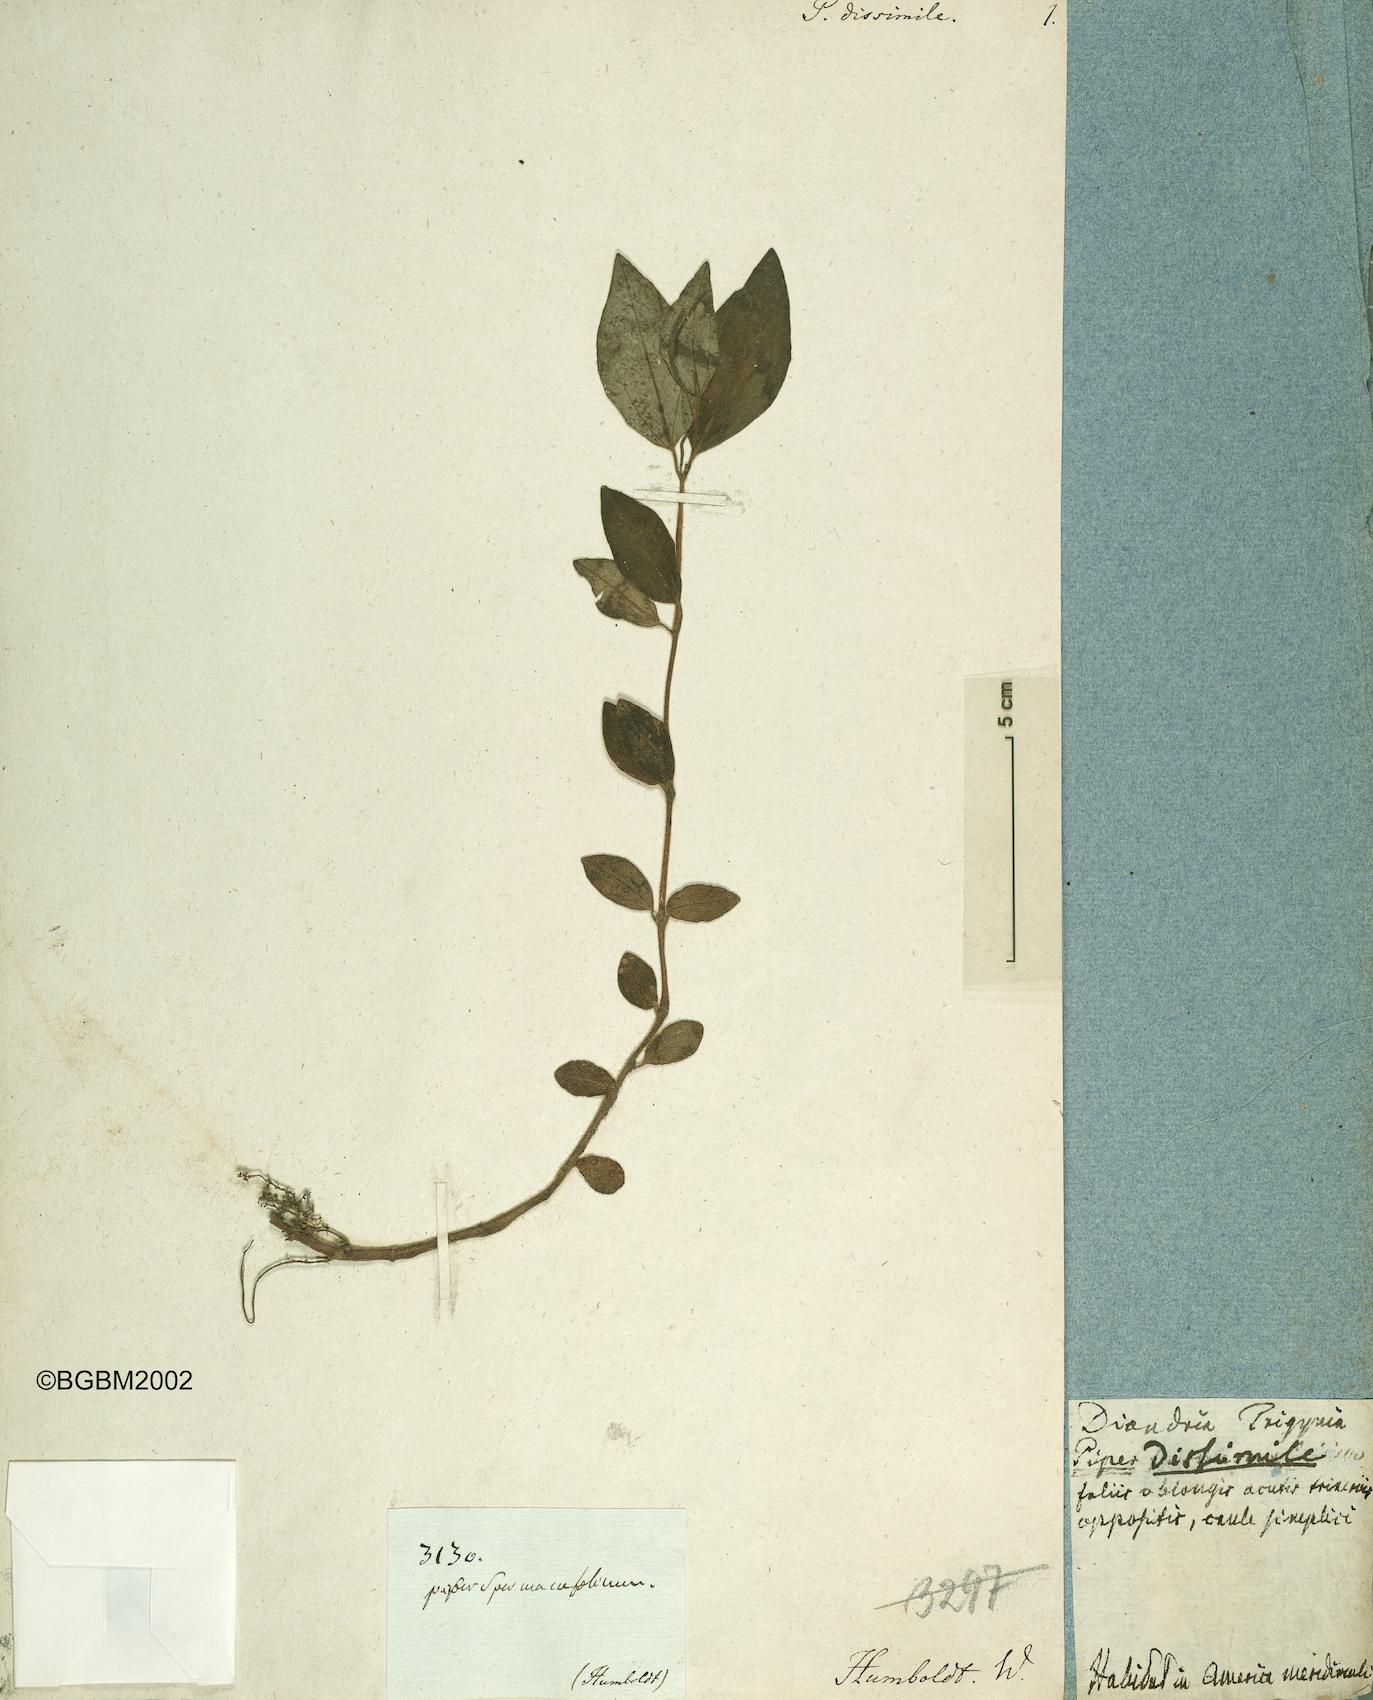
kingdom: Plantae
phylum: Tracheophyta
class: Magnoliopsida
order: Piperales
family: Piperaceae
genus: Peperomia
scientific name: Peperomia blanda
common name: Arid-land peperomia
